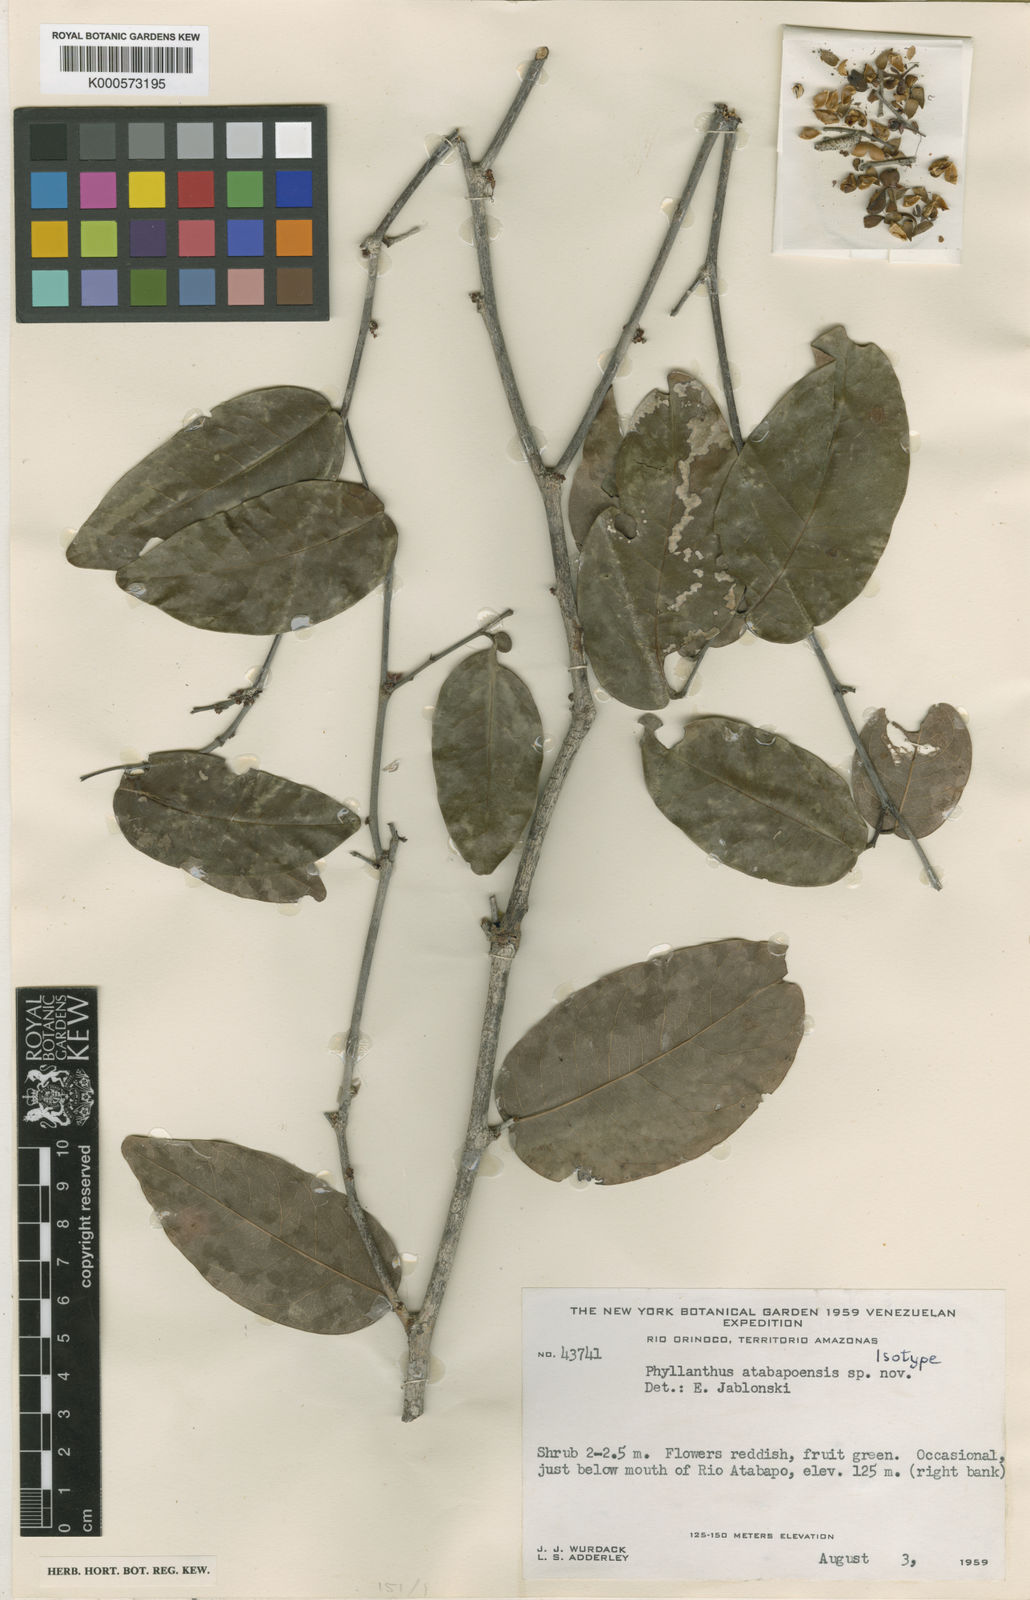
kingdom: Plantae
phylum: Tracheophyta
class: Magnoliopsida
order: Malpighiales
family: Phyllanthaceae
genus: Phyllanthus
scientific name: Phyllanthus atabapoensis
